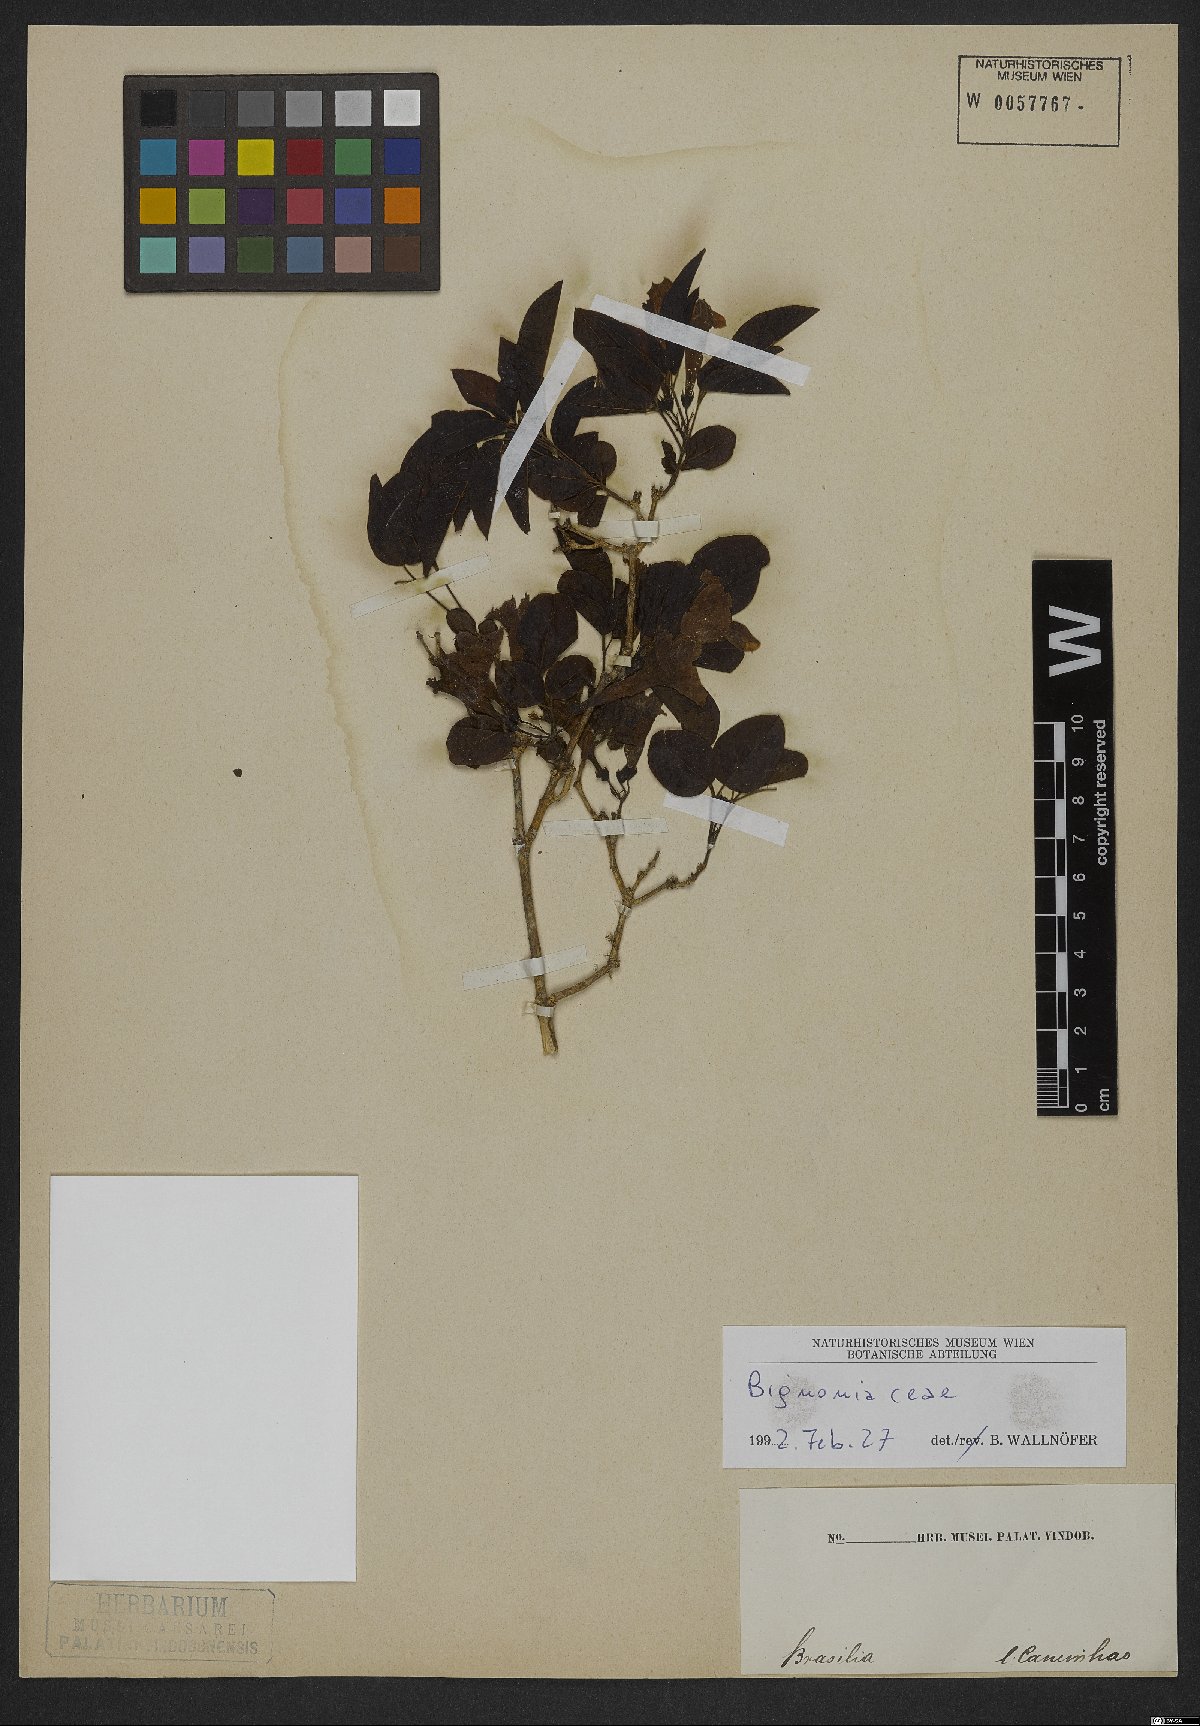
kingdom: Plantae
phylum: Tracheophyta
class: Magnoliopsida
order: Lamiales
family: Bignoniaceae
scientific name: Bignoniaceae
